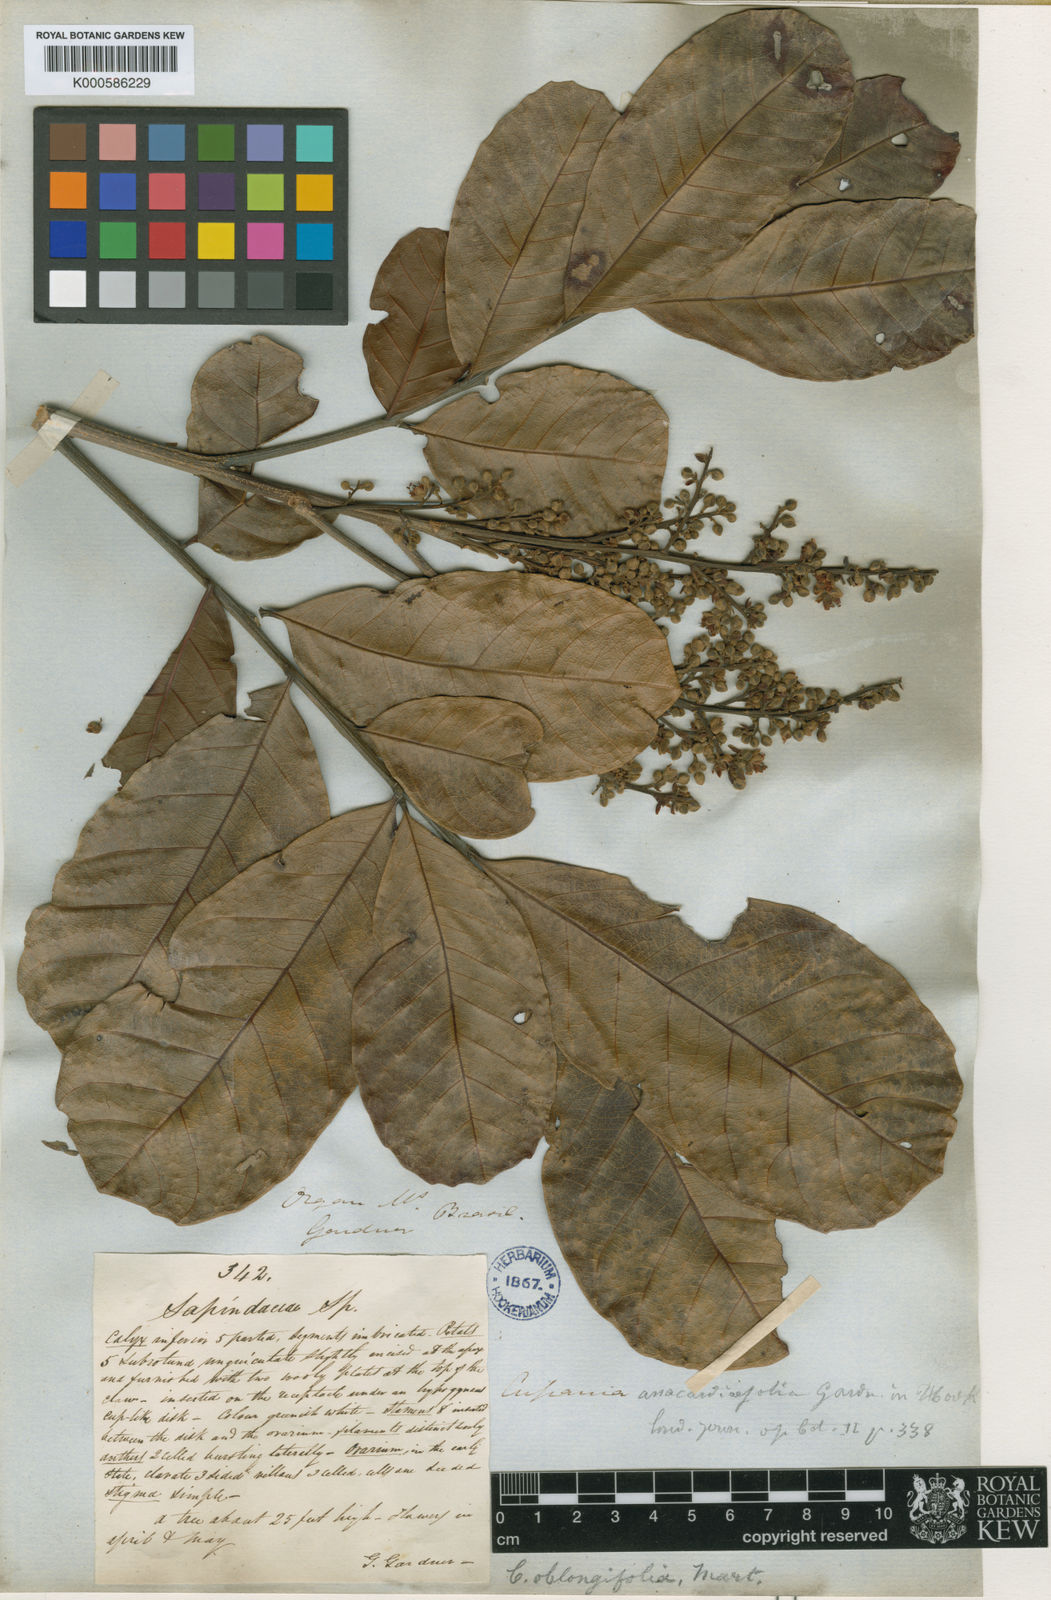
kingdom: Plantae
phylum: Tracheophyta
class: Magnoliopsida
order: Sapindales
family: Sapindaceae
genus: Cupania
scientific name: Cupania oblongifolia
